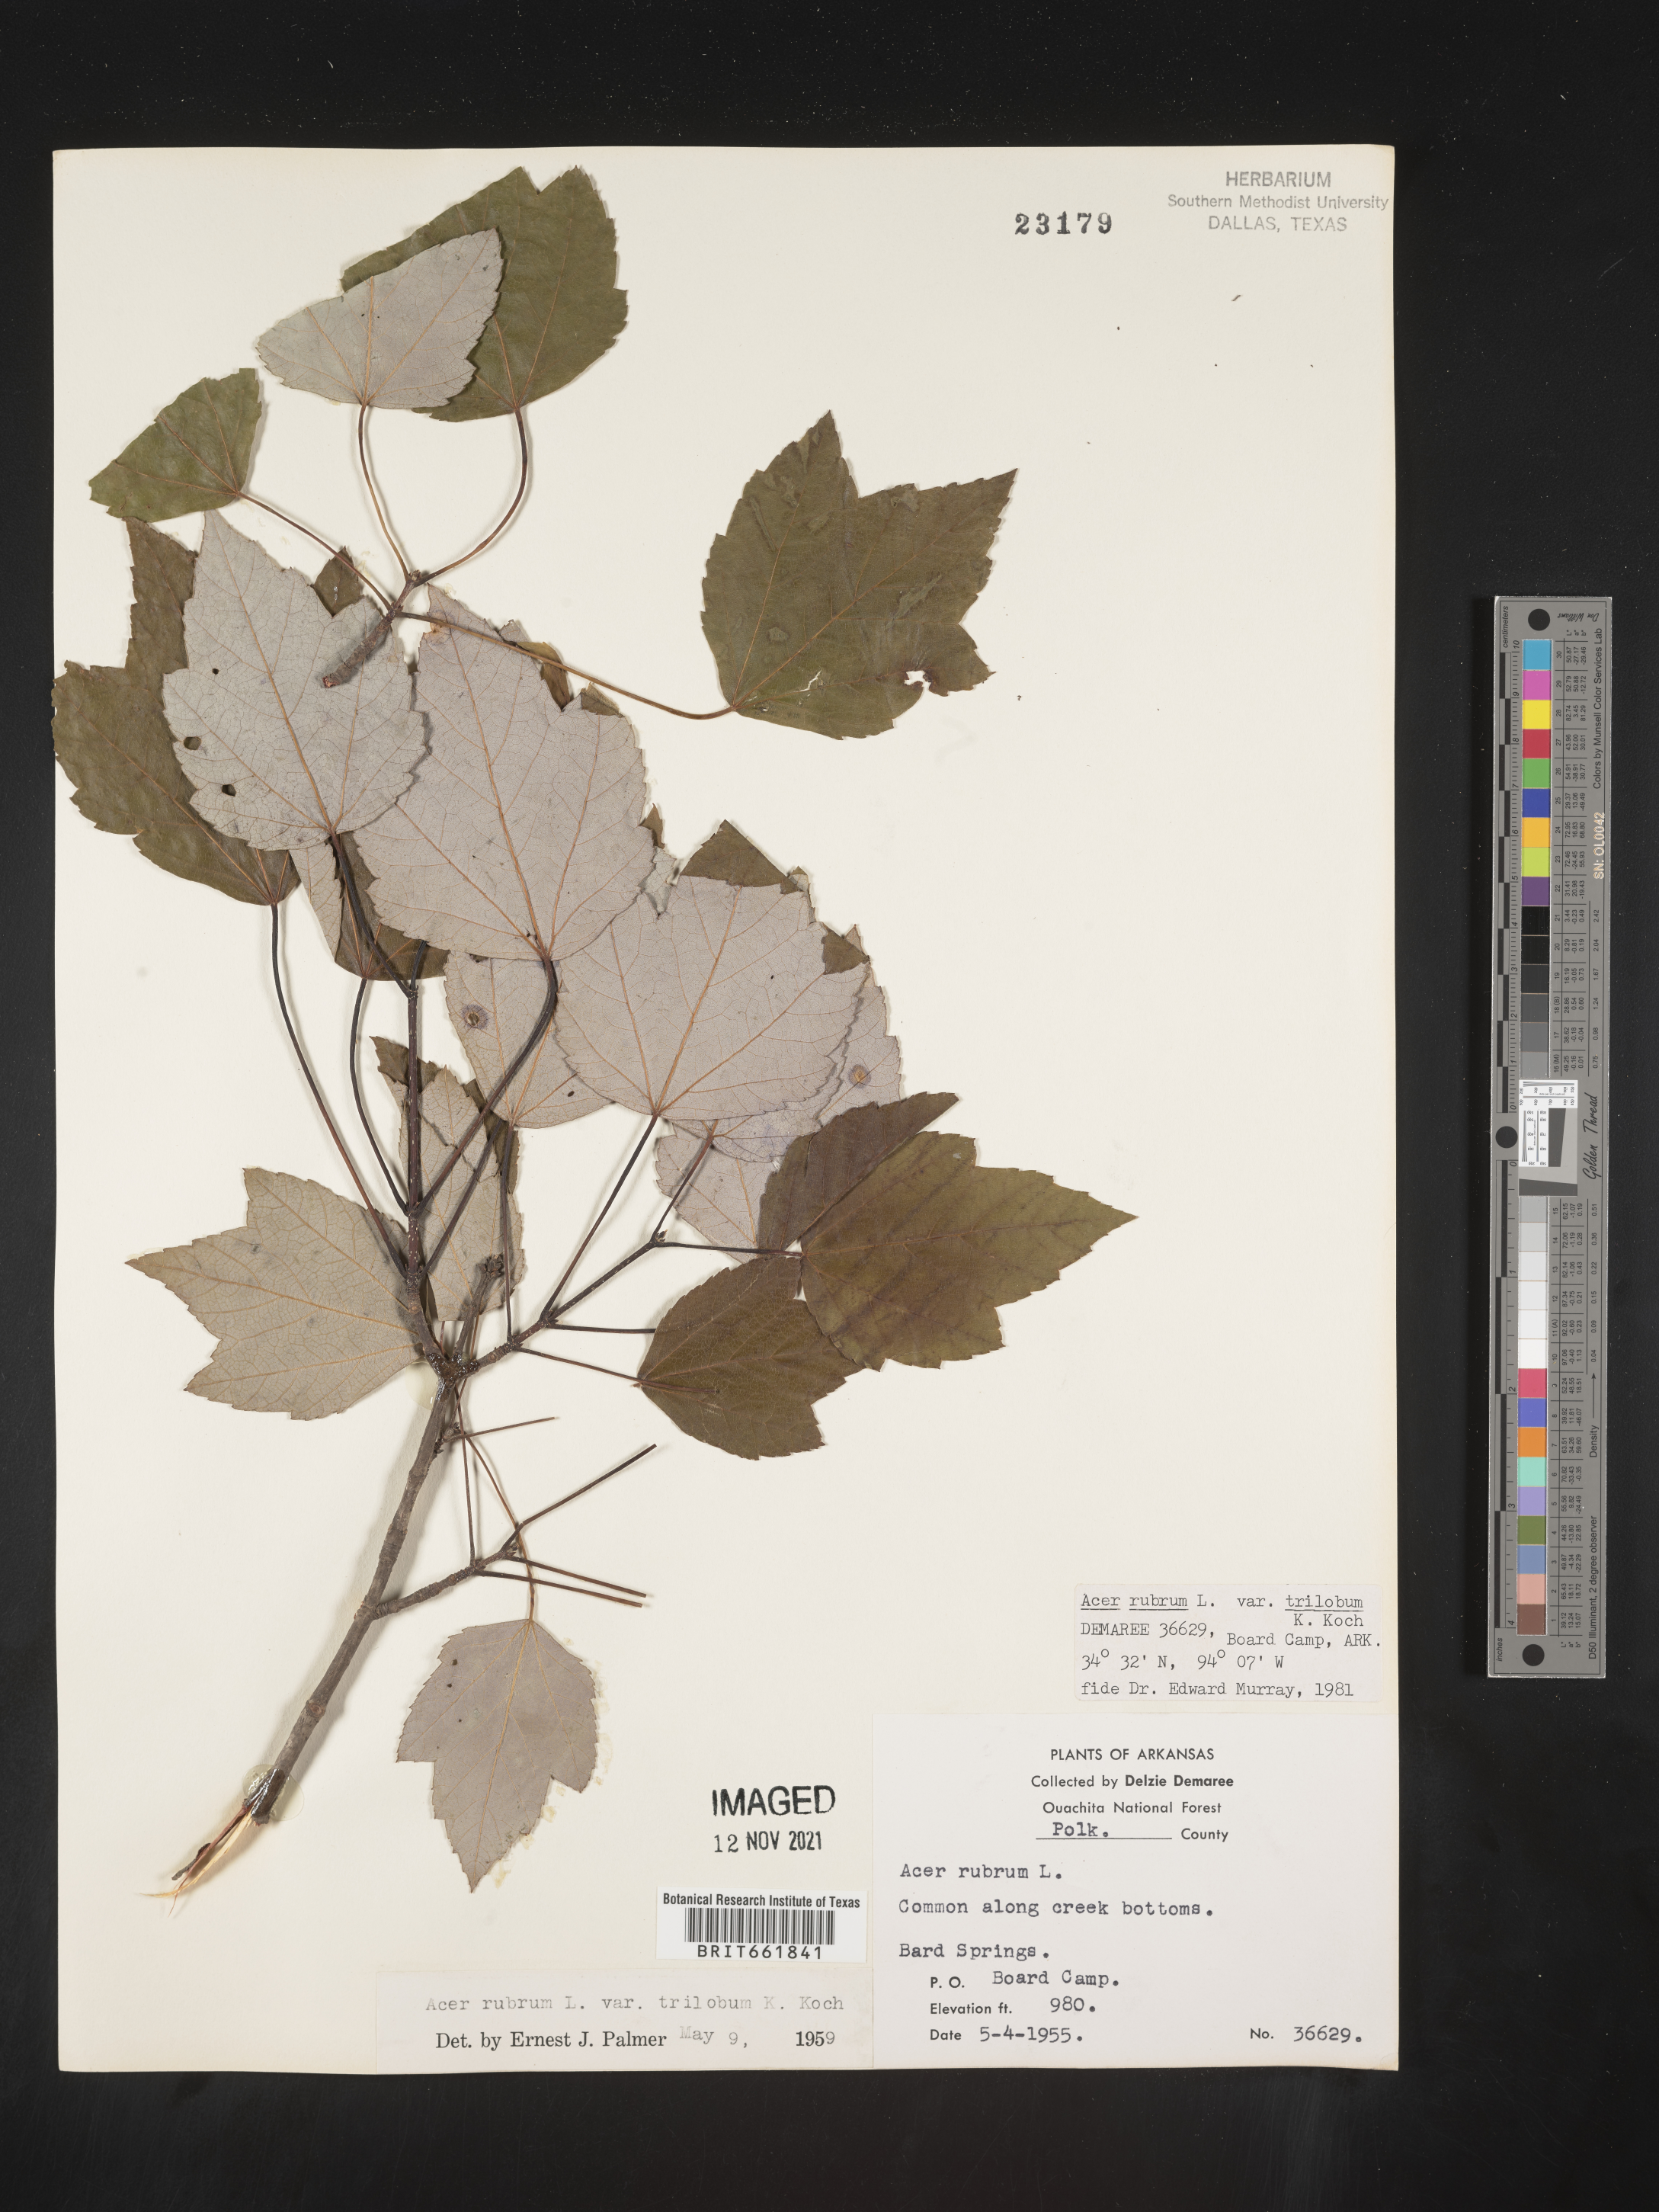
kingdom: Plantae
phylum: Tracheophyta
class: Magnoliopsida
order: Sapindales
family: Sapindaceae
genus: Acer
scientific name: Acer rubrum
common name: Red maple
